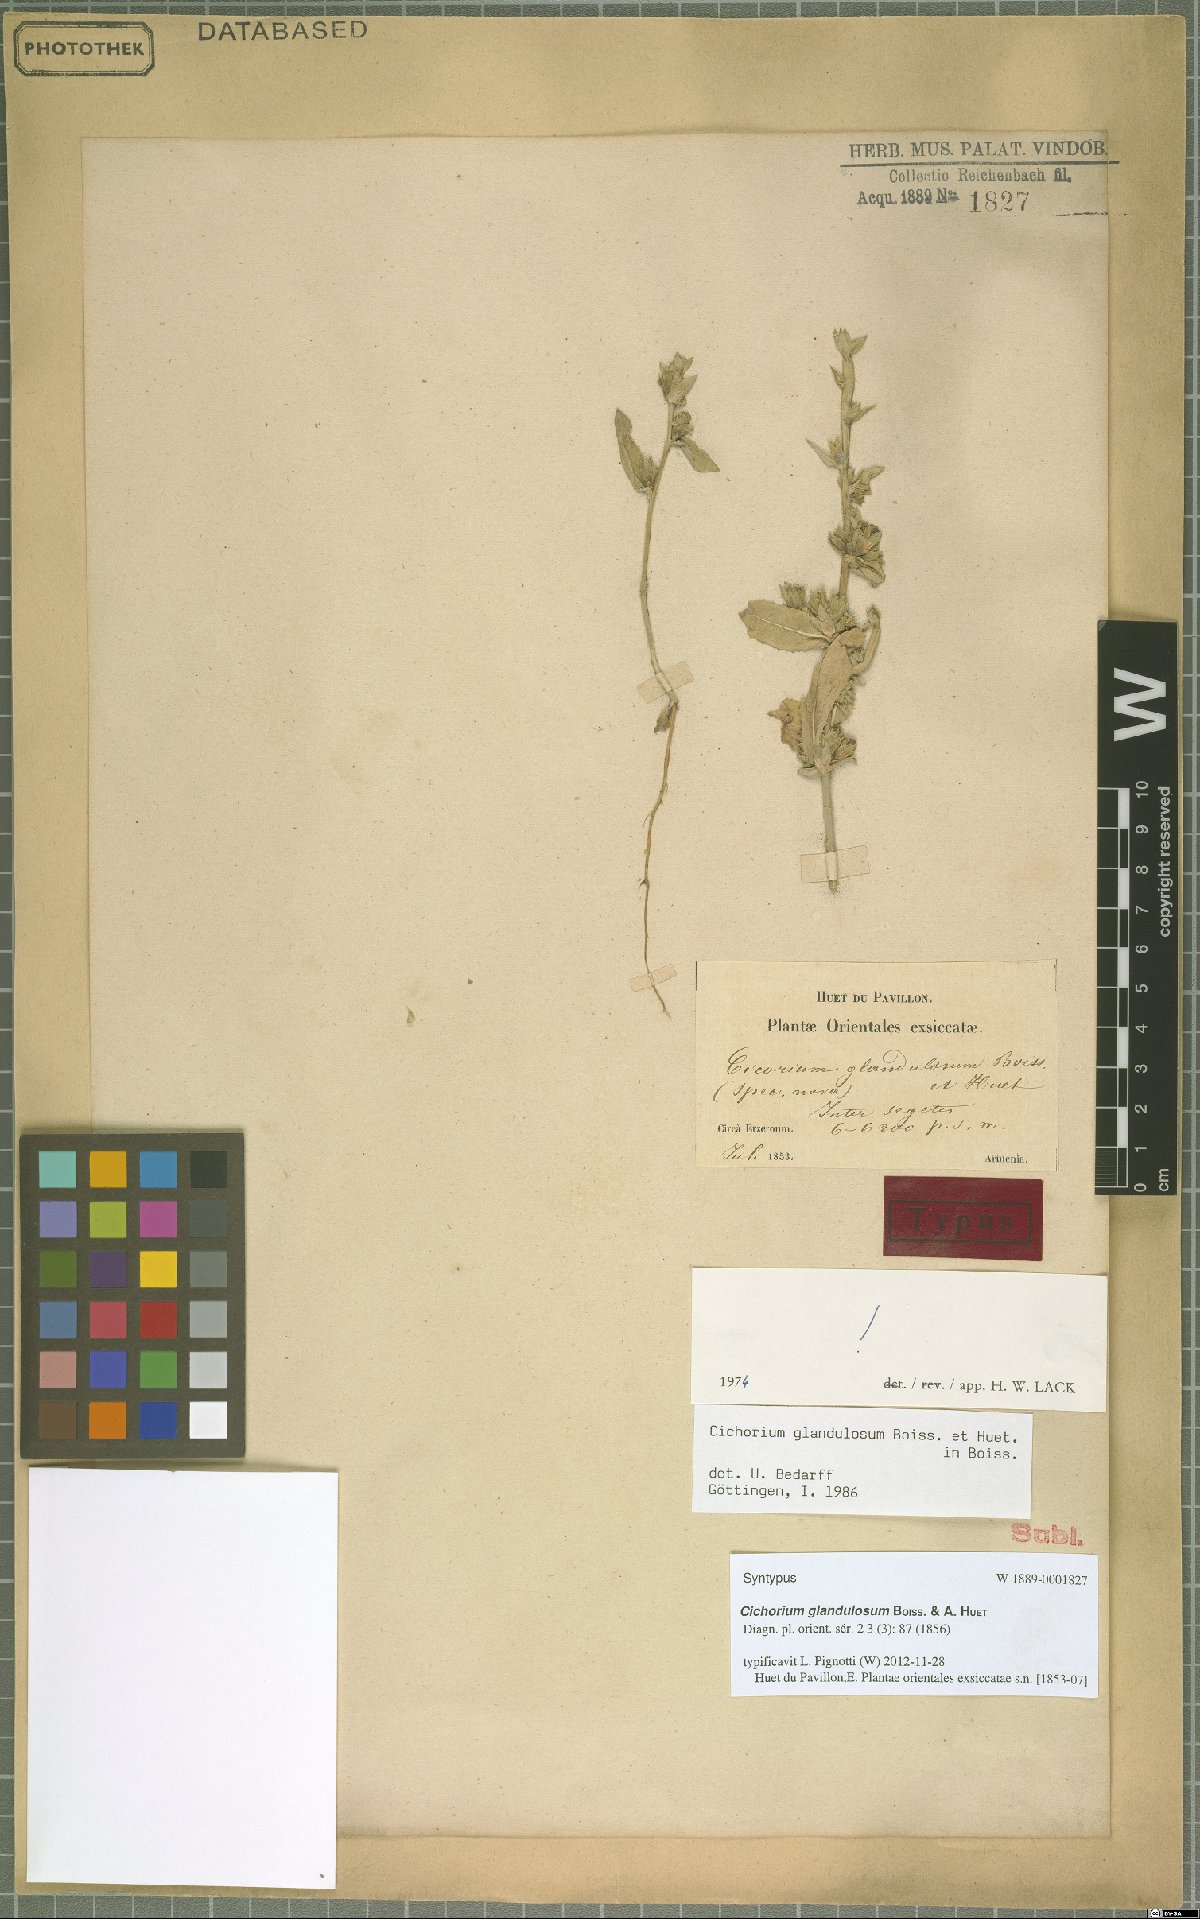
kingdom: Plantae
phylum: Tracheophyta
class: Magnoliopsida
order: Asterales
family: Asteraceae
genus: Cichorium
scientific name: Cichorium glandulosum
